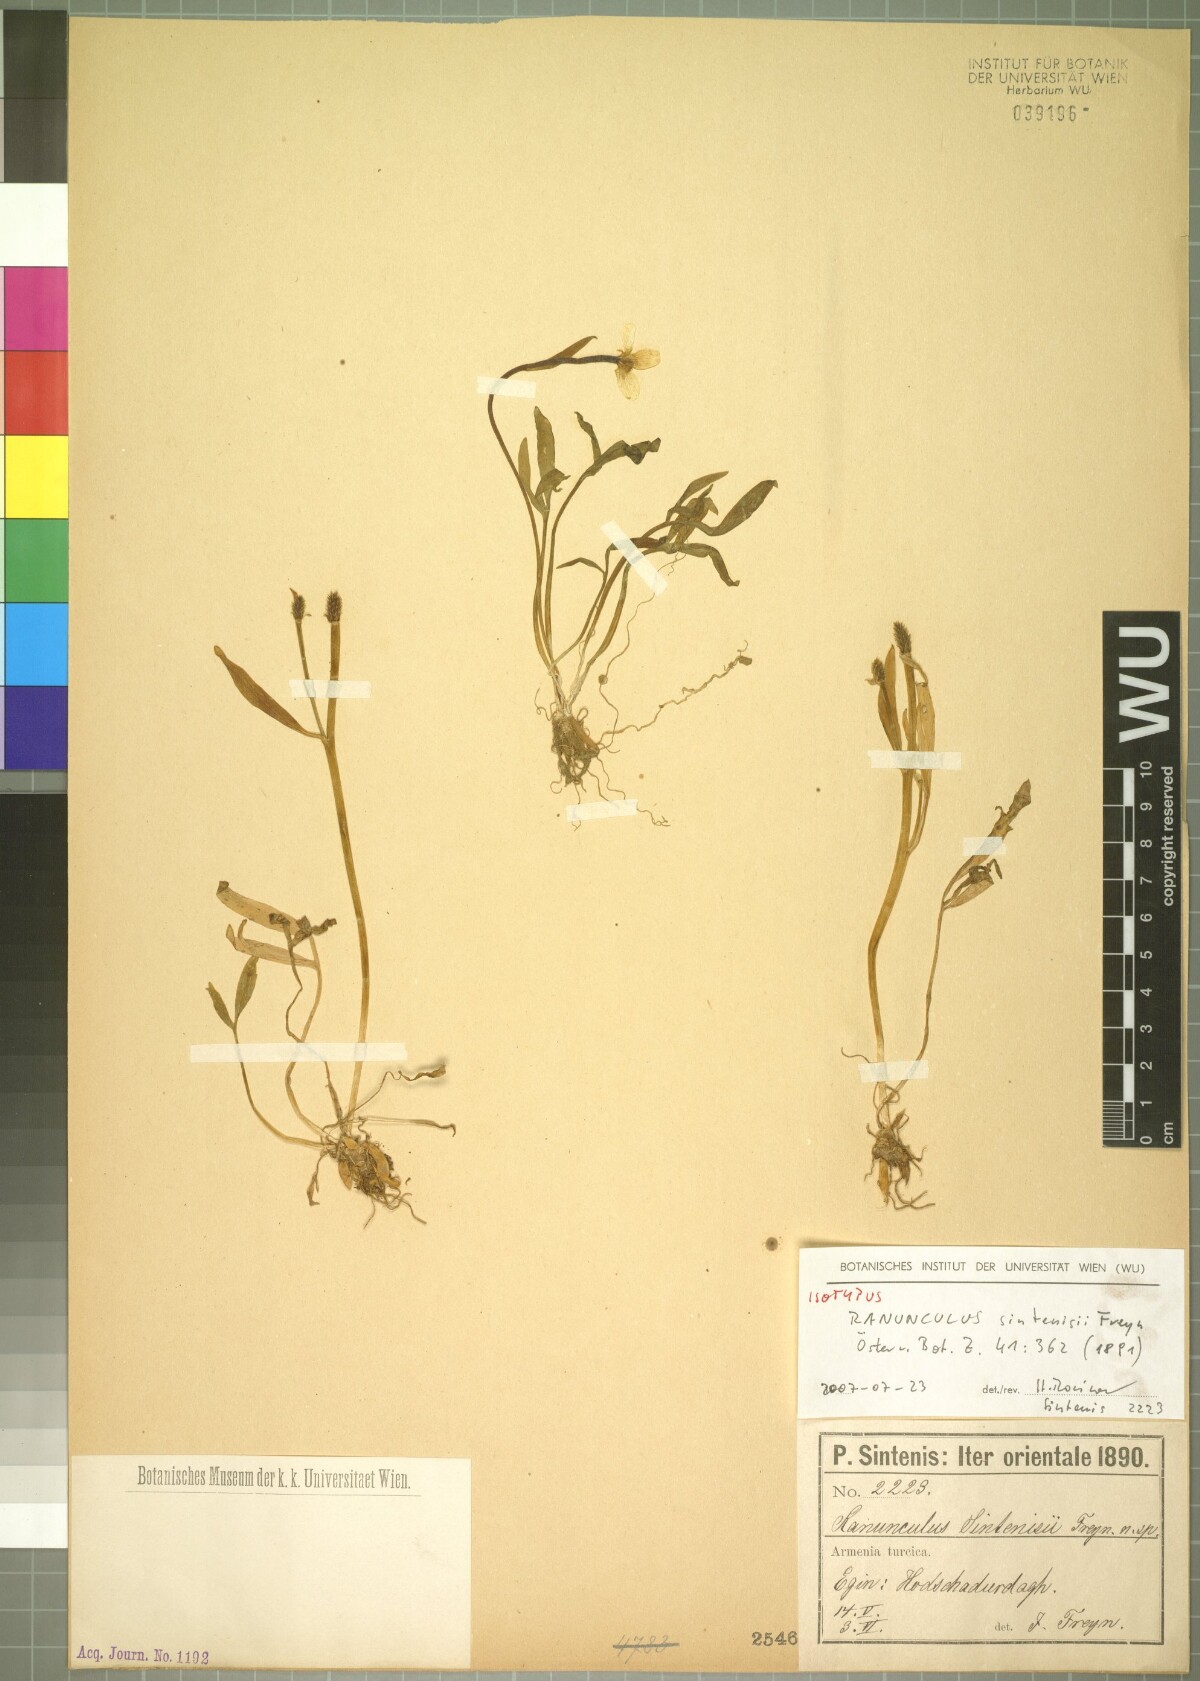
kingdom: Plantae
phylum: Tracheophyta
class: Magnoliopsida
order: Ranunculales
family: Ranunculaceae
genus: Ranunculus
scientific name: Ranunculus sintenisii
